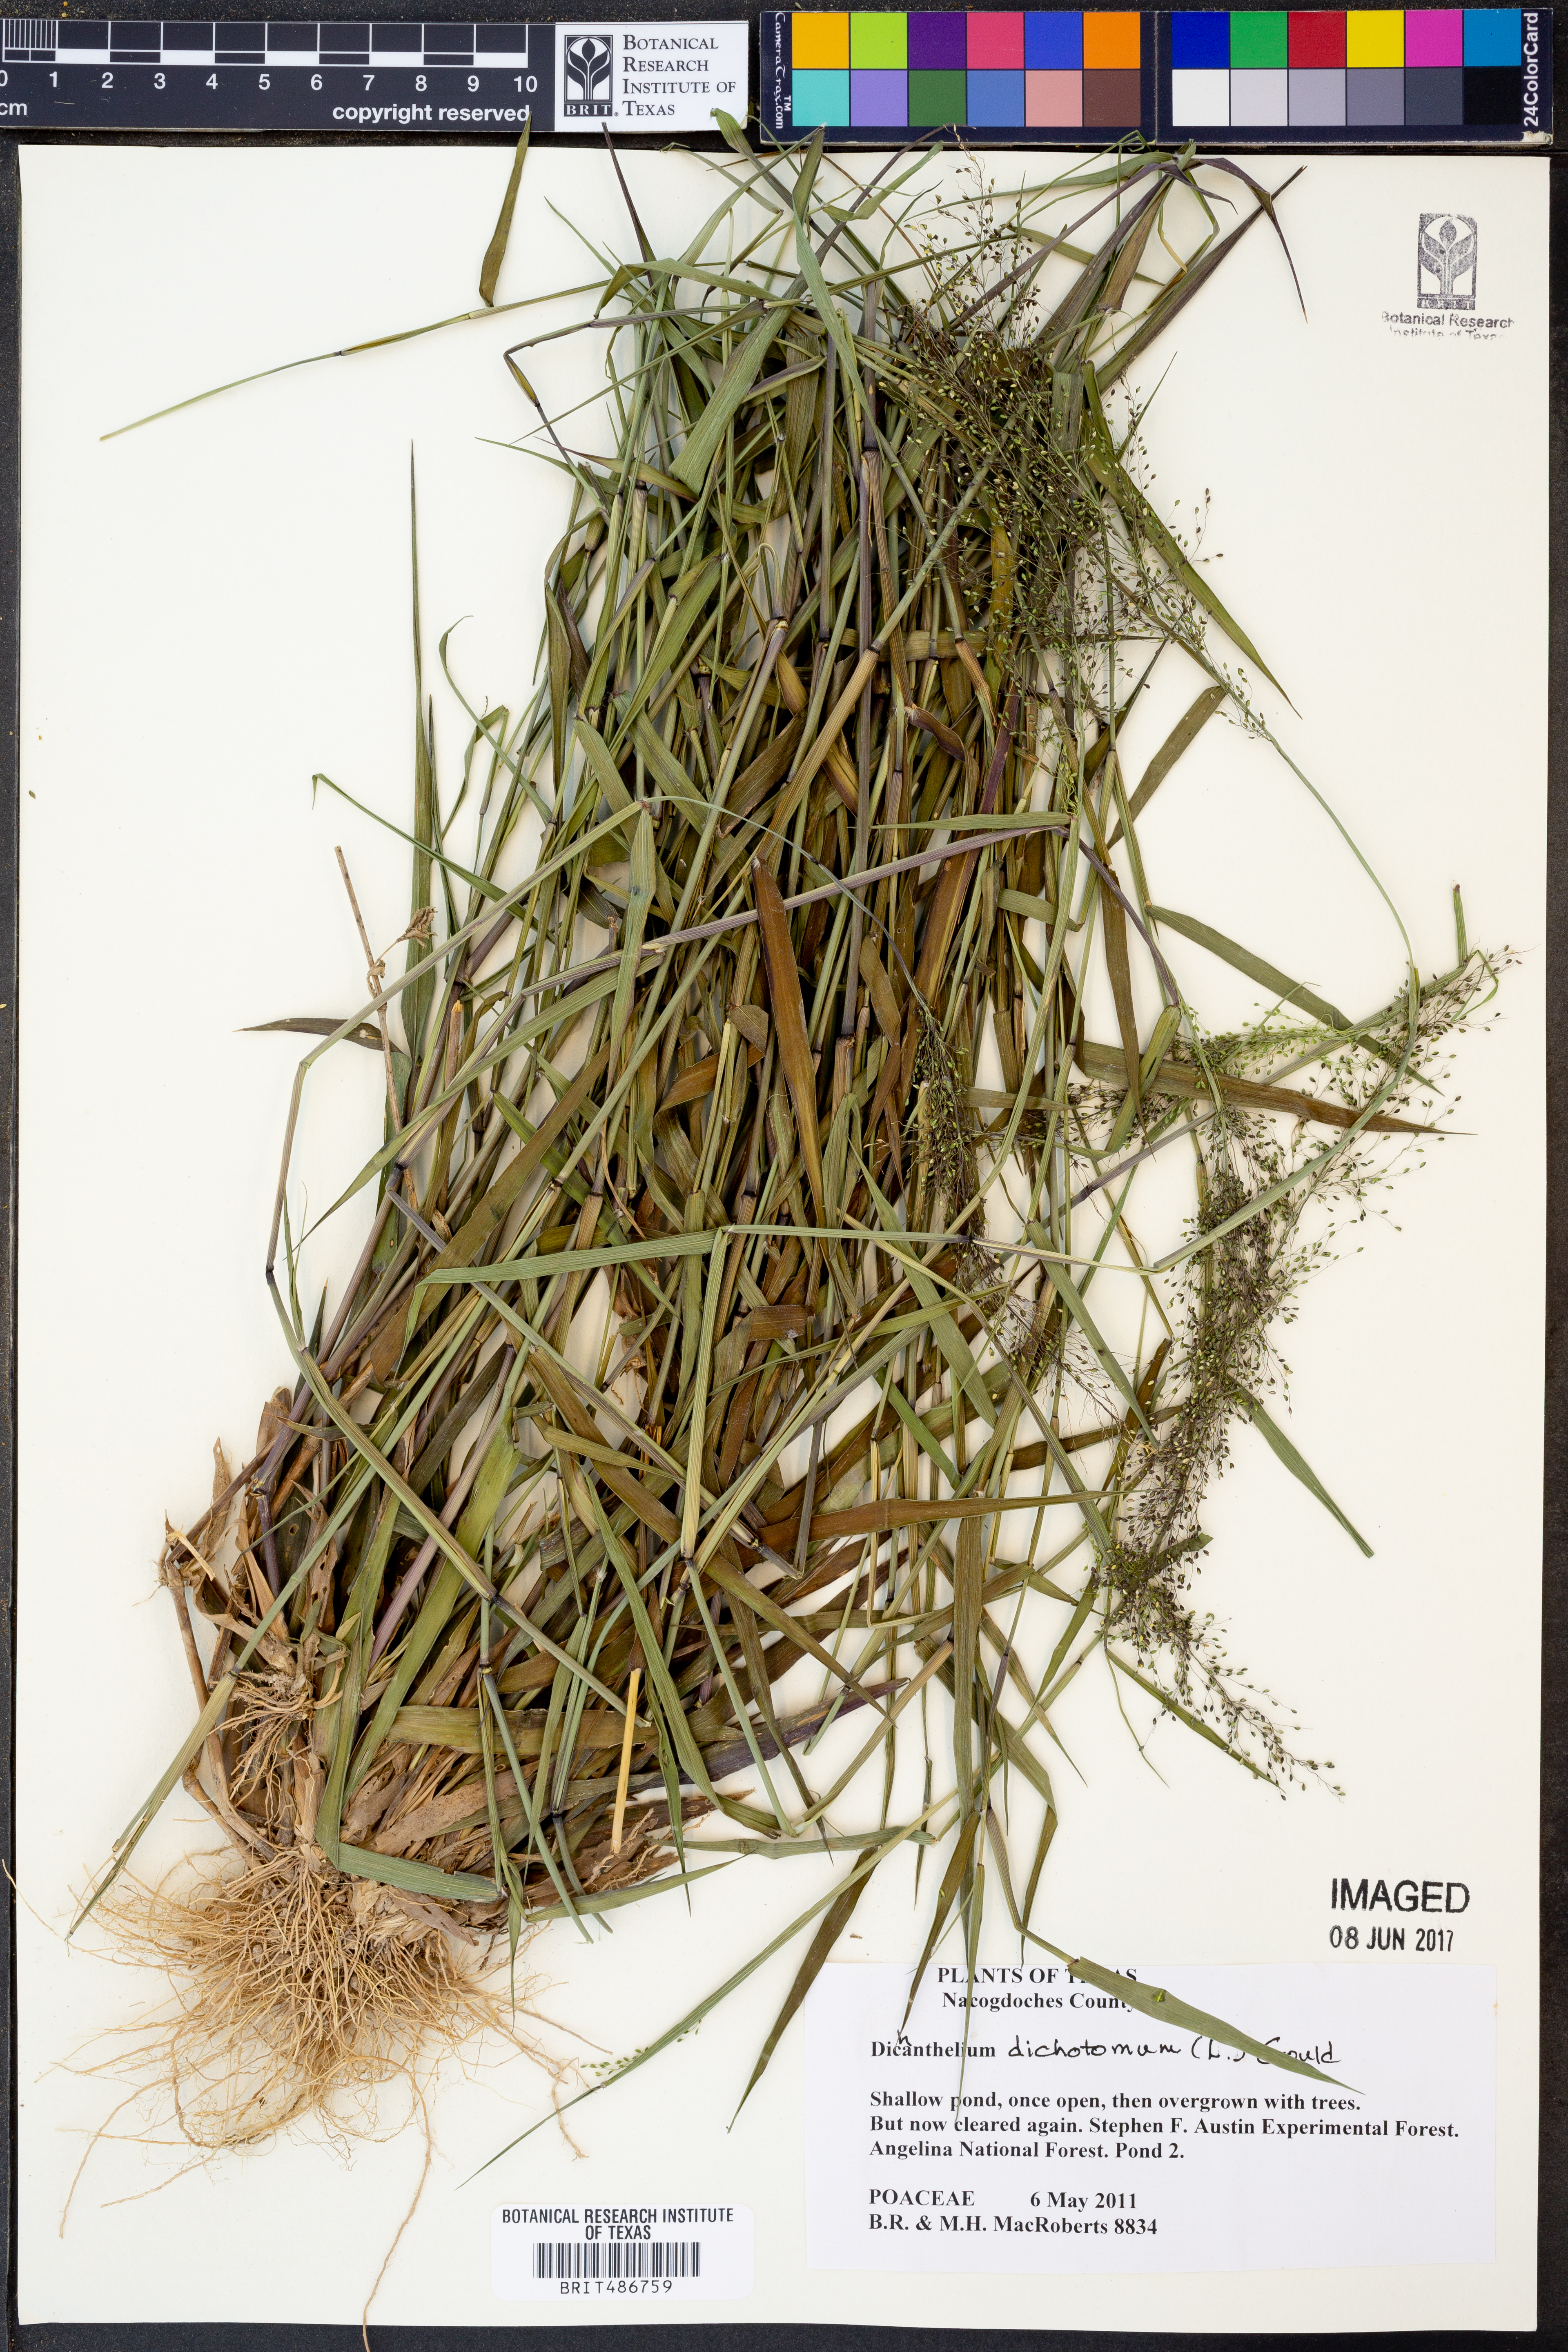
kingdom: Plantae
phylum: Tracheophyta
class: Liliopsida
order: Poales
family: Poaceae
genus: Dichanthelium
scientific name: Dichanthelium dichotomum
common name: Cypress panicgrass
